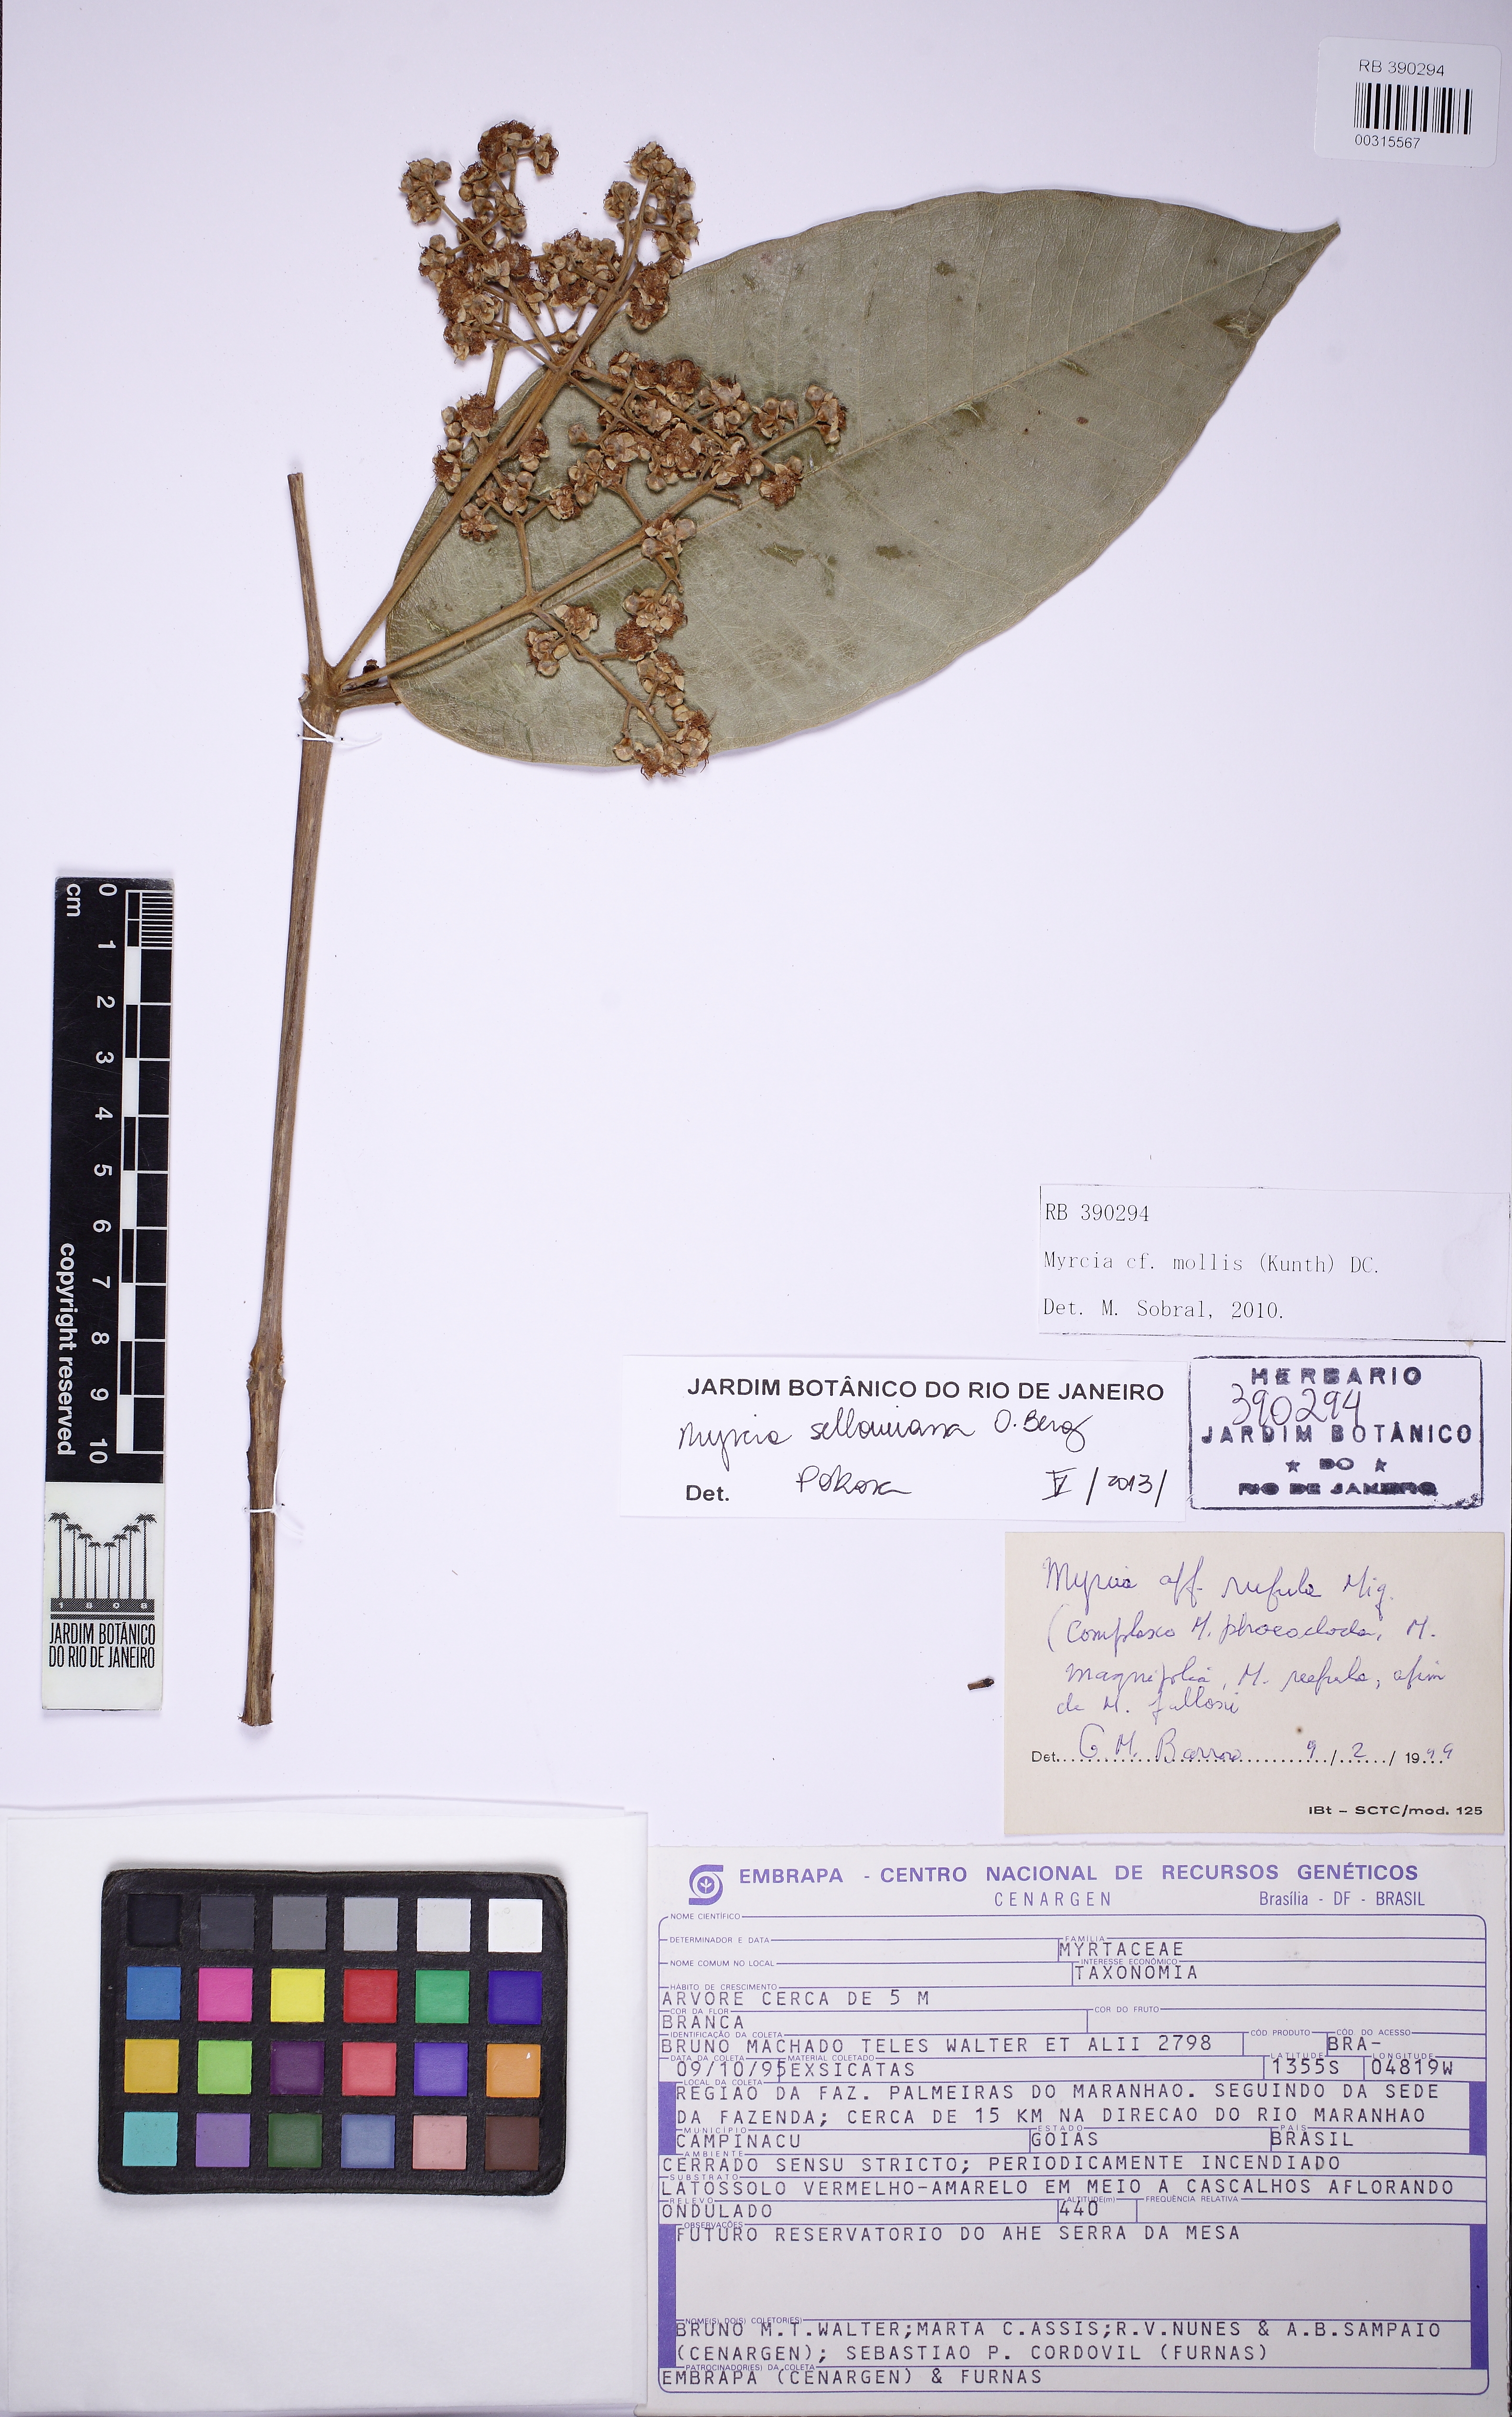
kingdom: Plantae
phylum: Tracheophyta
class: Magnoliopsida
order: Myrtales
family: Myrtaceae
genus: Myrcia
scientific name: Myrcia splendens
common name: Surinam cherry
